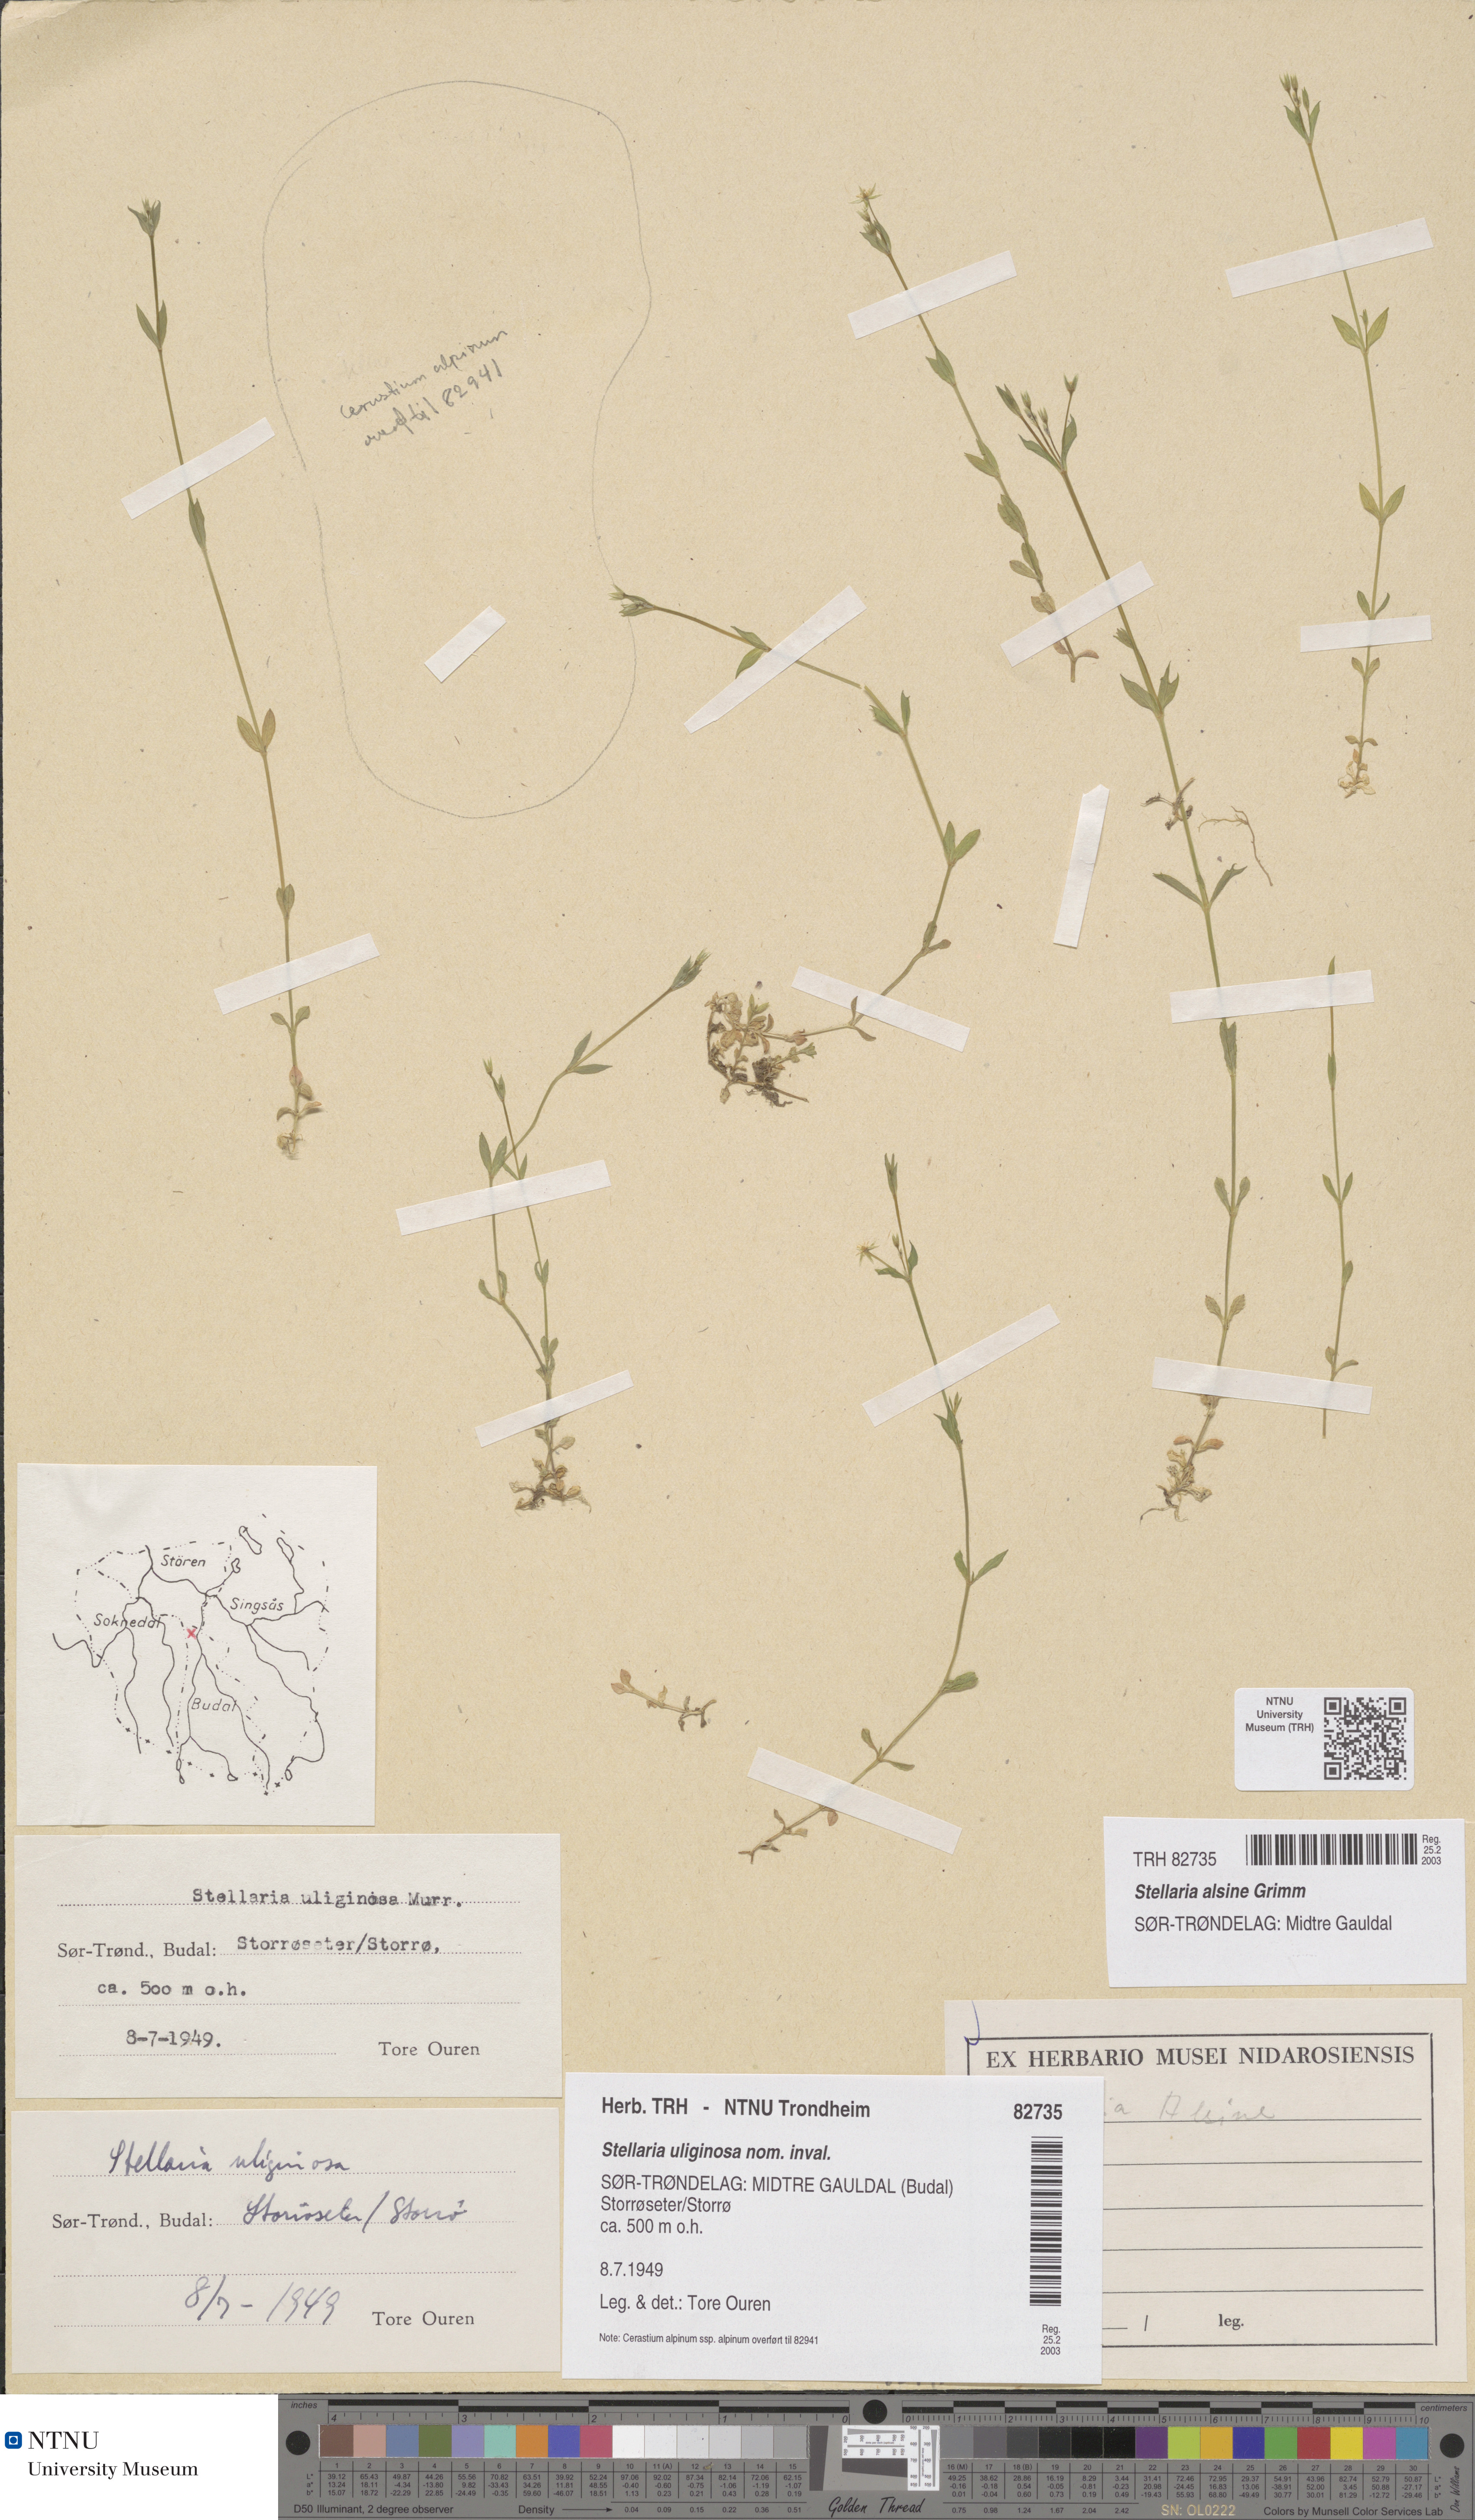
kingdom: Plantae
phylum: Tracheophyta
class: Magnoliopsida
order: Caryophyllales
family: Caryophyllaceae
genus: Stellaria
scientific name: Stellaria alsine
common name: Bog stitchwort
